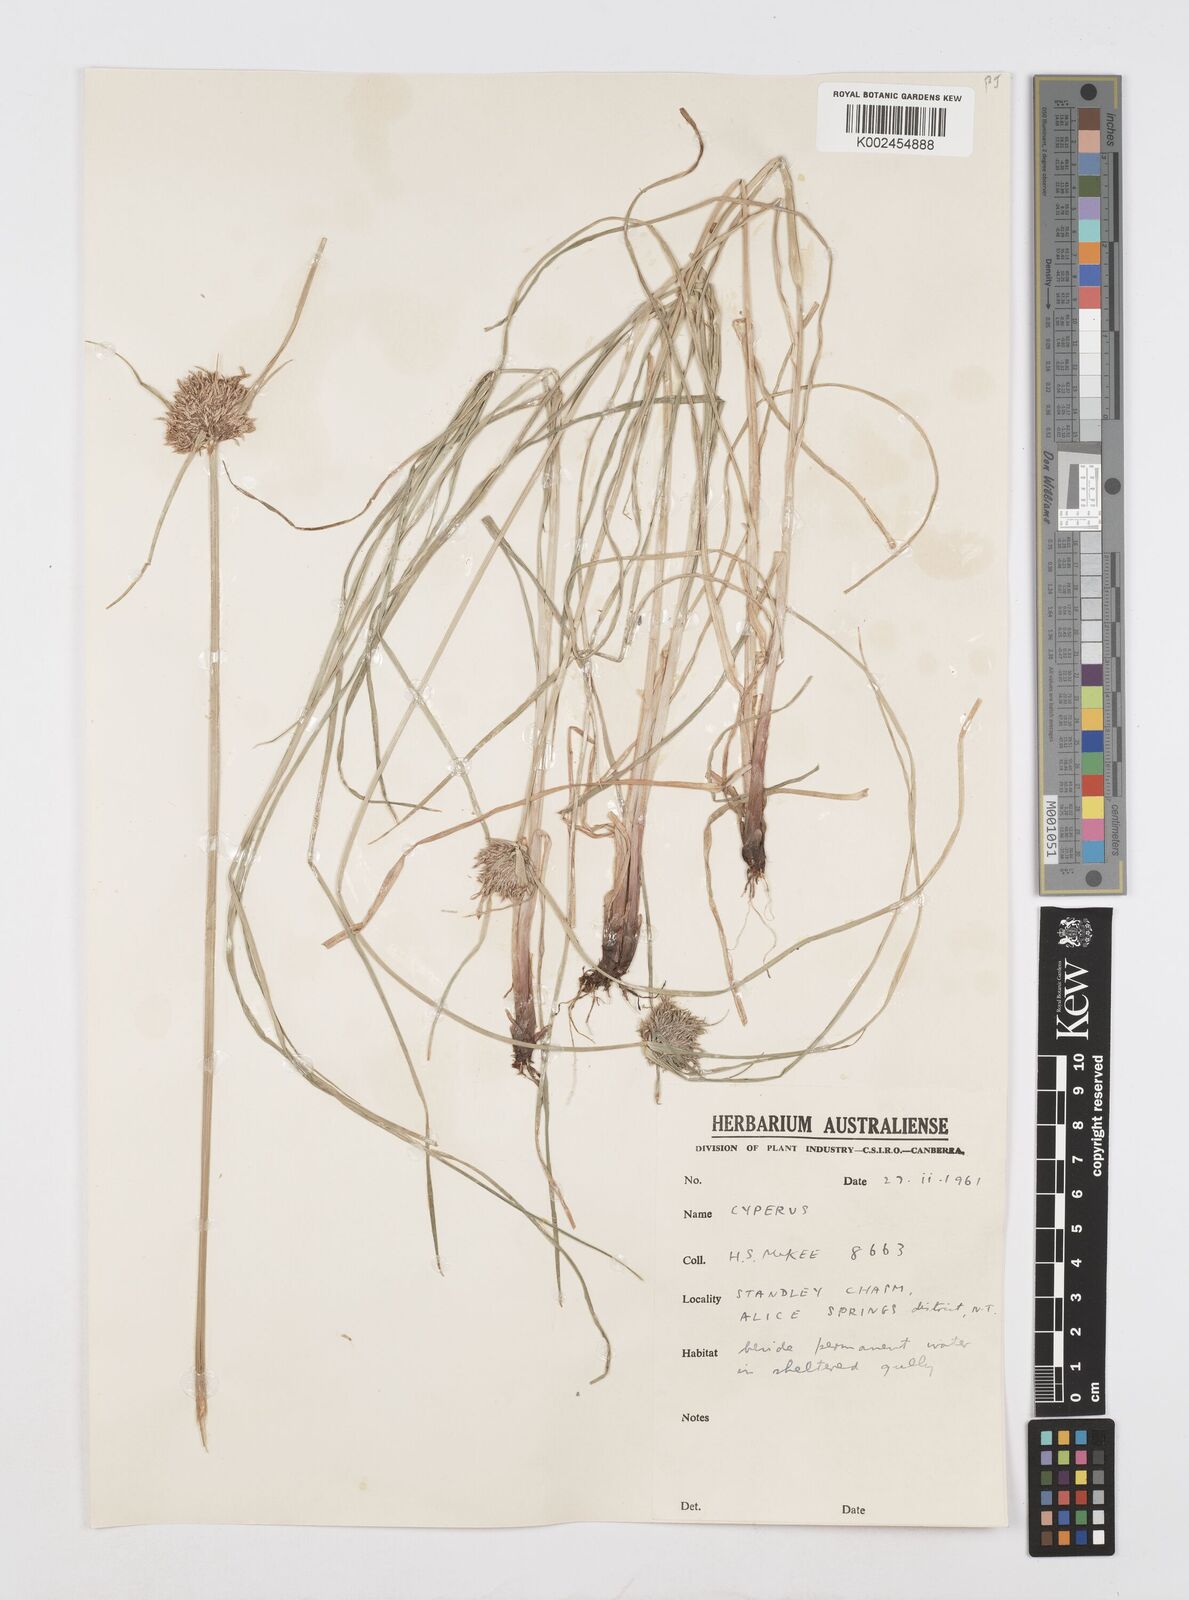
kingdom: Plantae
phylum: Tracheophyta
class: Liliopsida
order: Poales
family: Cyperaceae
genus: Cyperus
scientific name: Cyperus polystachyos
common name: Bunchy flat sedge
